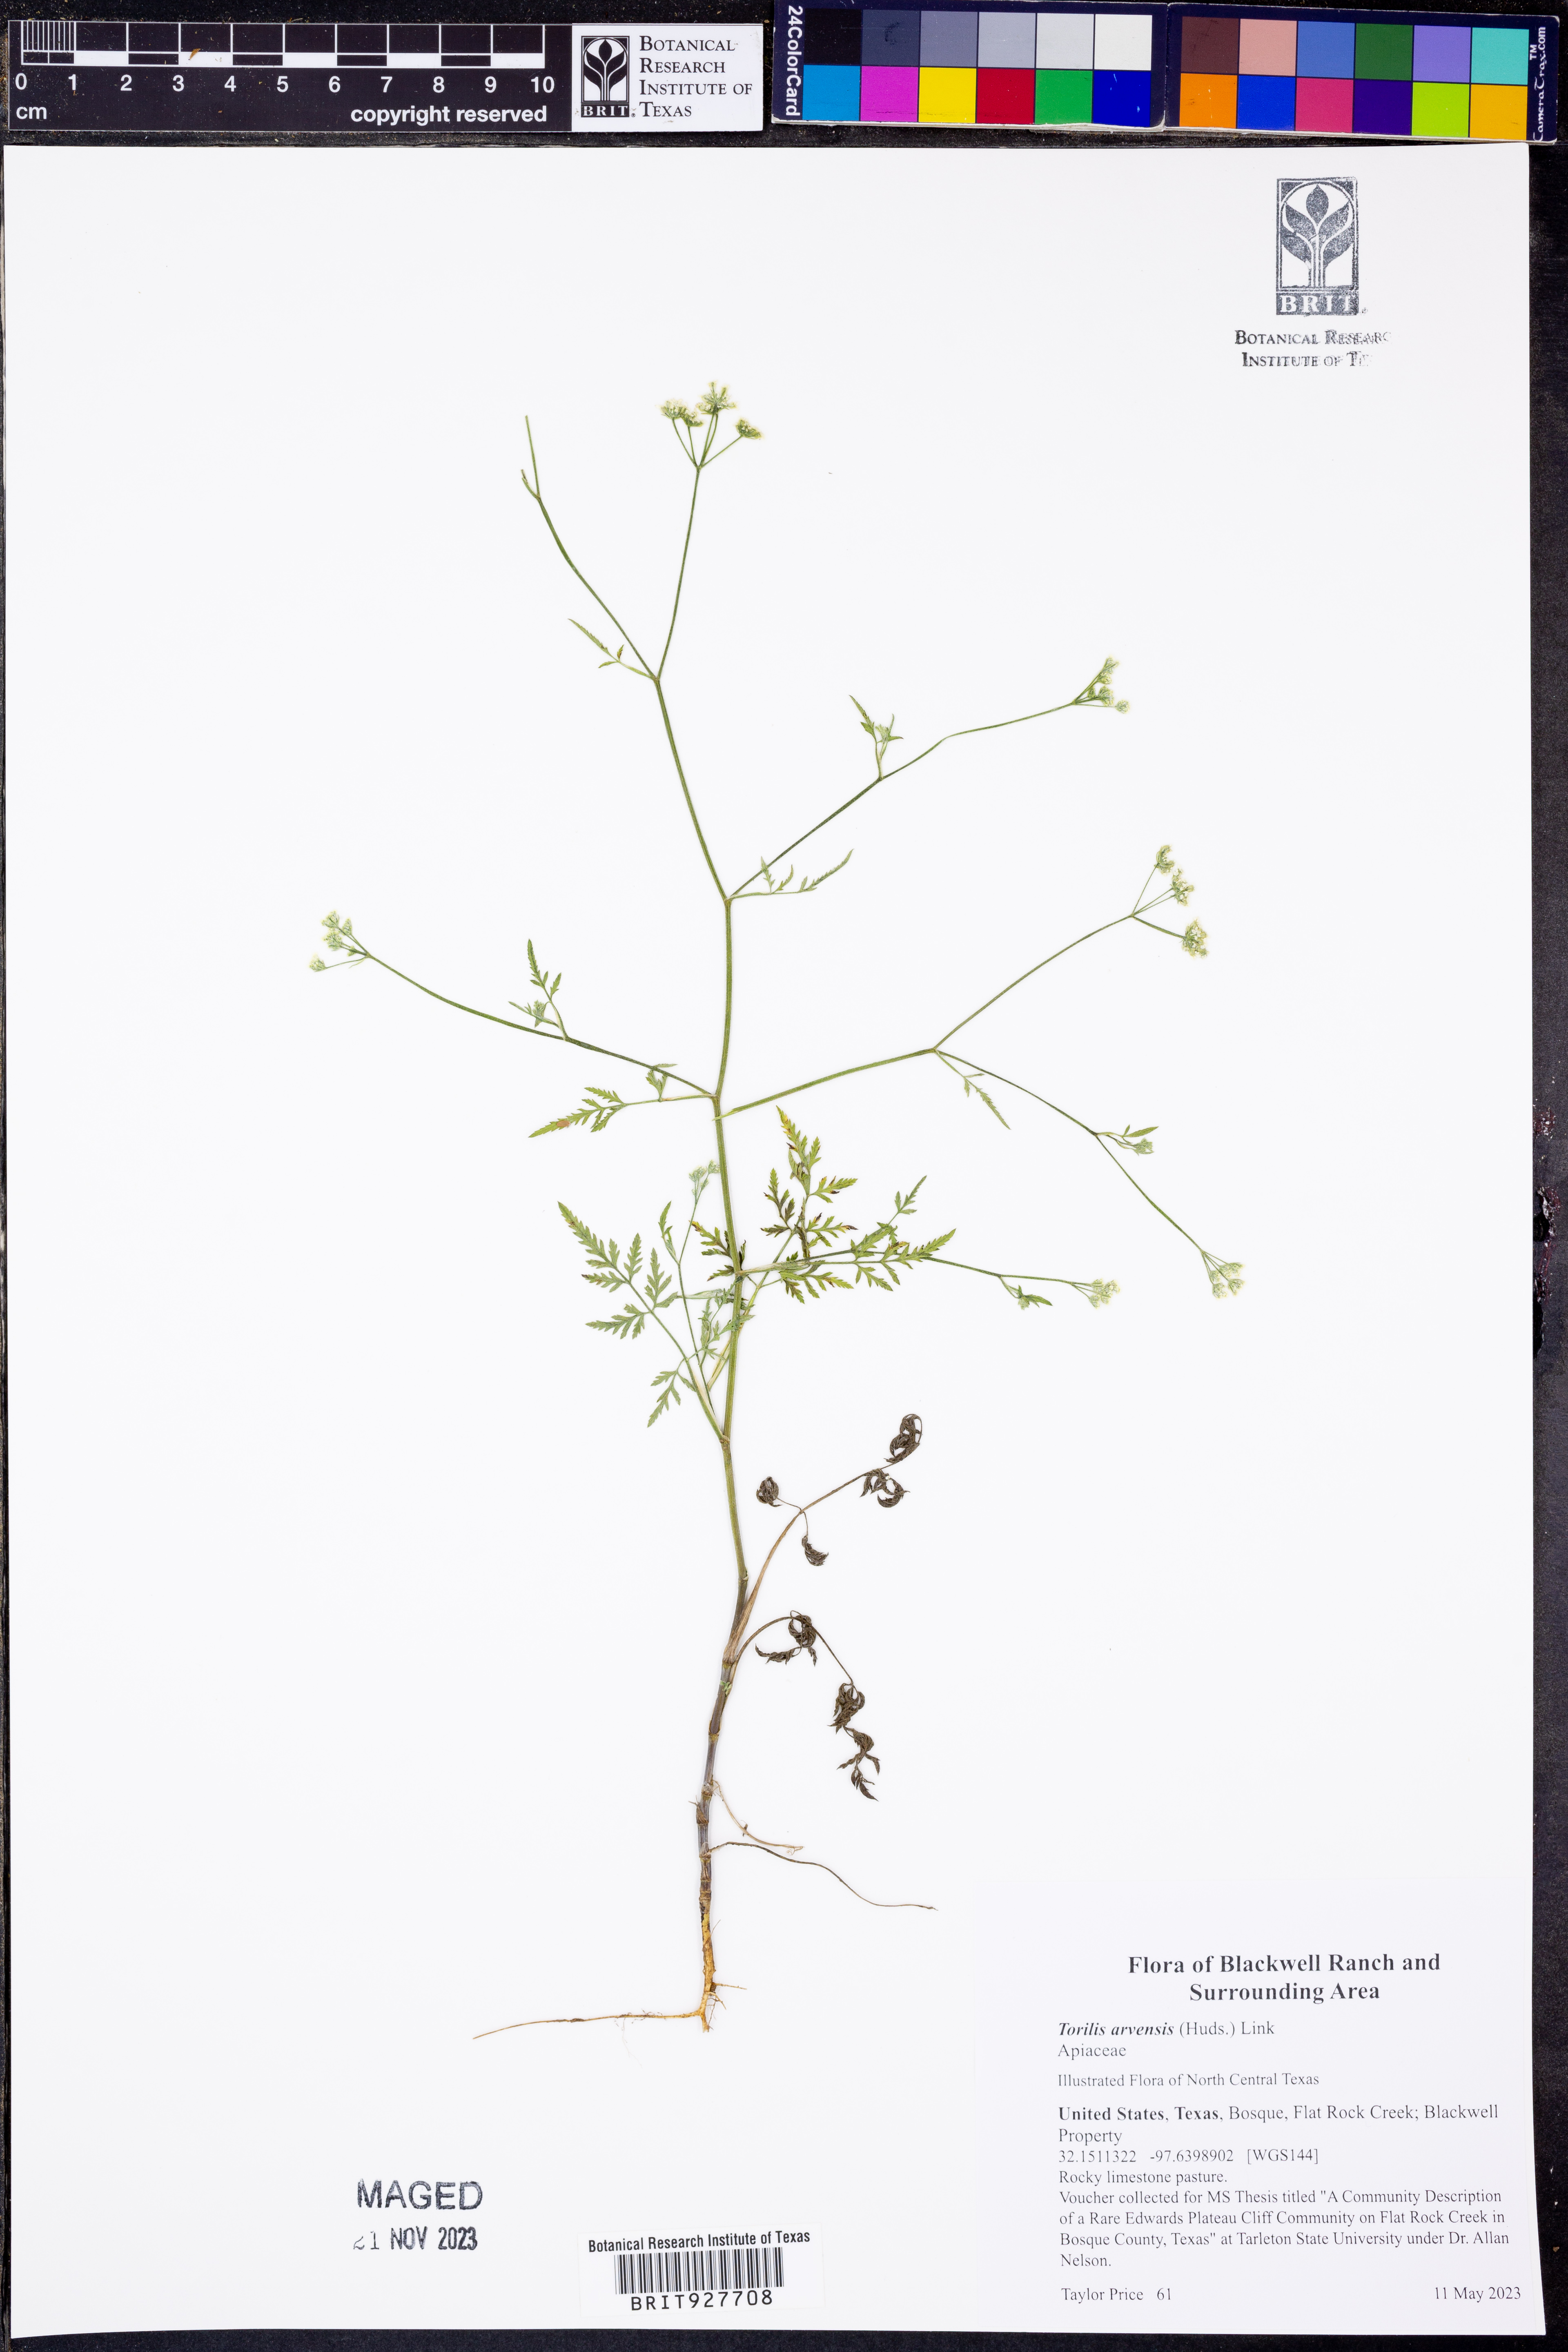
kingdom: Plantae
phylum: Tracheophyta
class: Magnoliopsida
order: Apiales
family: Apiaceae
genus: Torilis
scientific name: Torilis arvensis
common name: Spreading hedge-parsley
